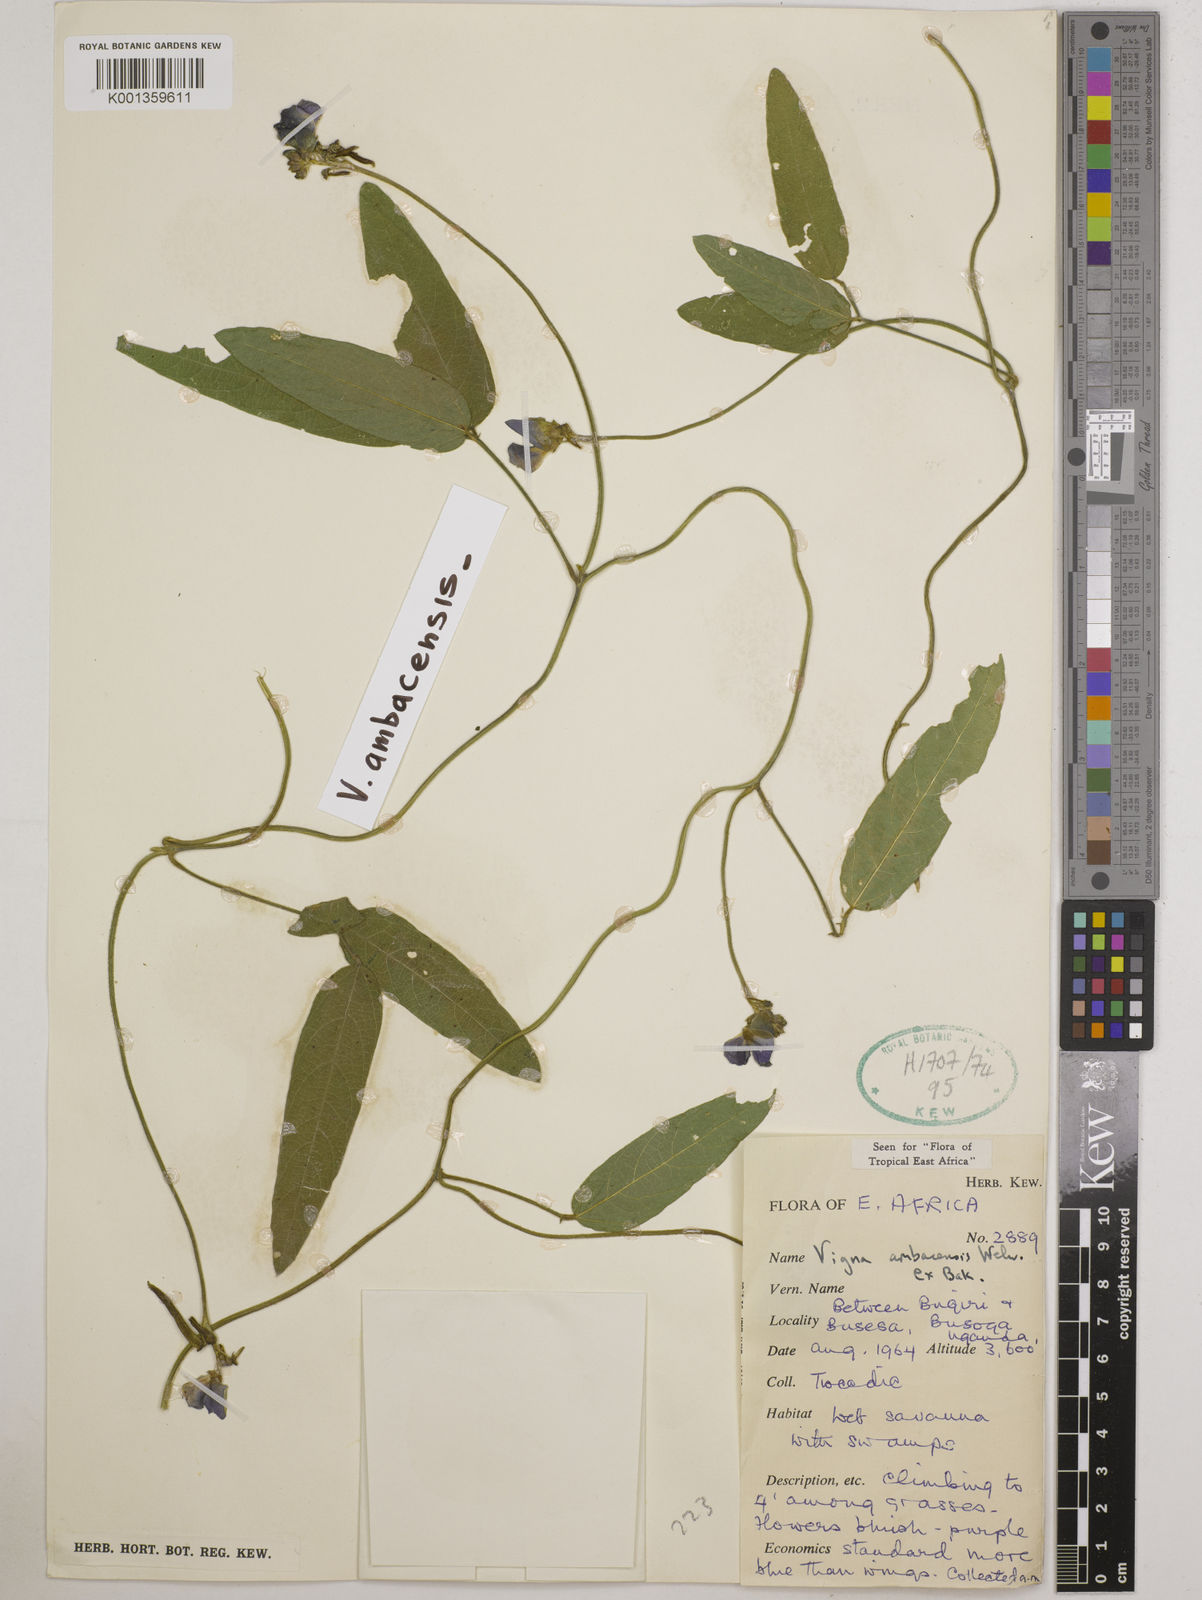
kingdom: Plantae
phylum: Tracheophyta
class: Magnoliopsida
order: Fabales
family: Fabaceae
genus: Vigna
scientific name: Vigna ambacensis
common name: Tsarkiyan zomo
